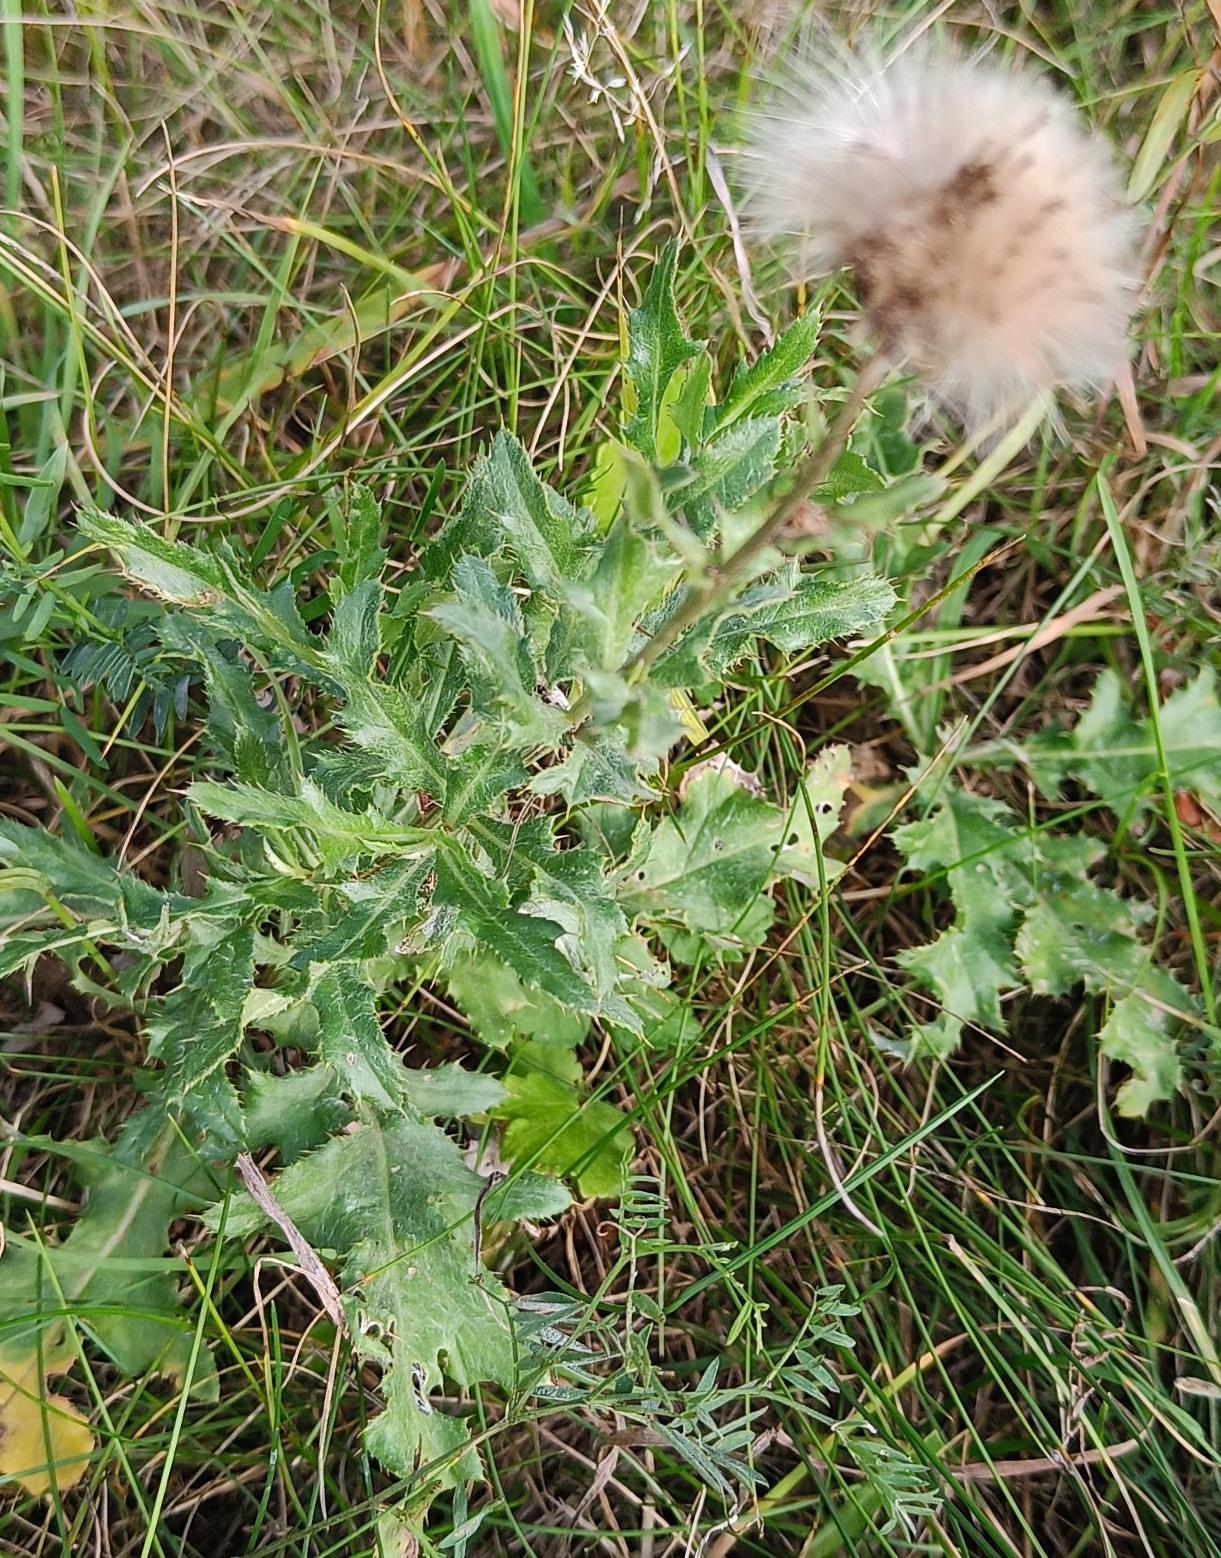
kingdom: Plantae
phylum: Tracheophyta
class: Magnoliopsida
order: Asterales
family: Asteraceae
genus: Cirsium
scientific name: Cirsium arvense
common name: Ager-tidsel
